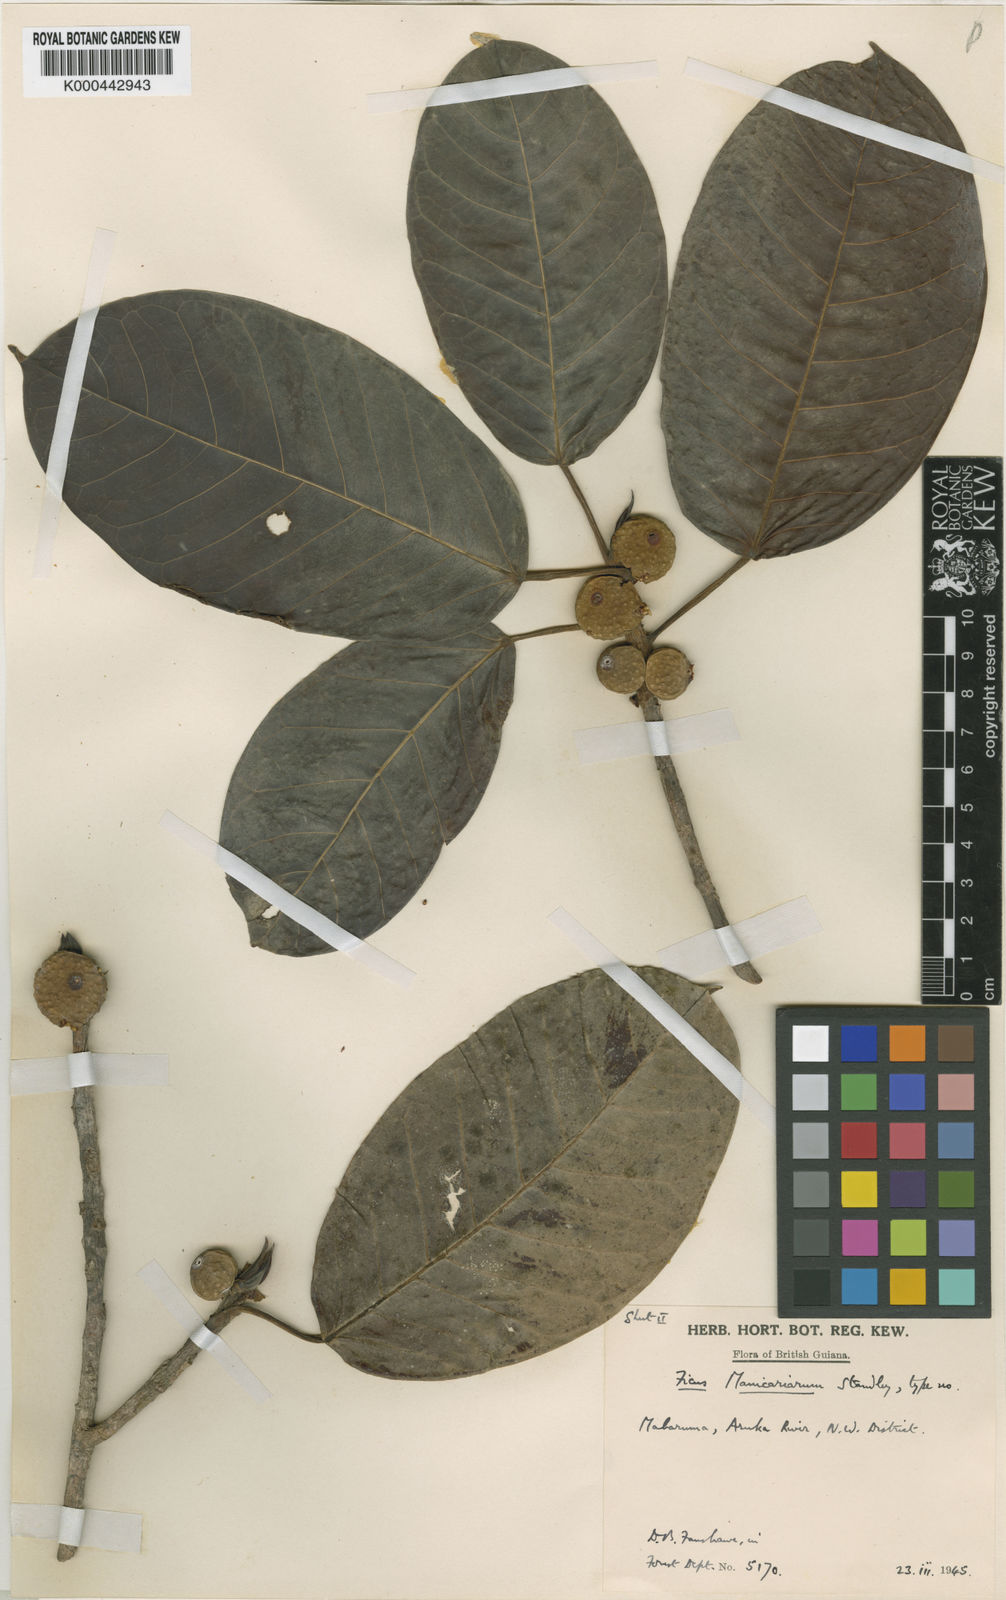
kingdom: Plantae
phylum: Tracheophyta
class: Magnoliopsida
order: Rosales
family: Moraceae
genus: Ficus
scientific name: Ficus broadwayi
